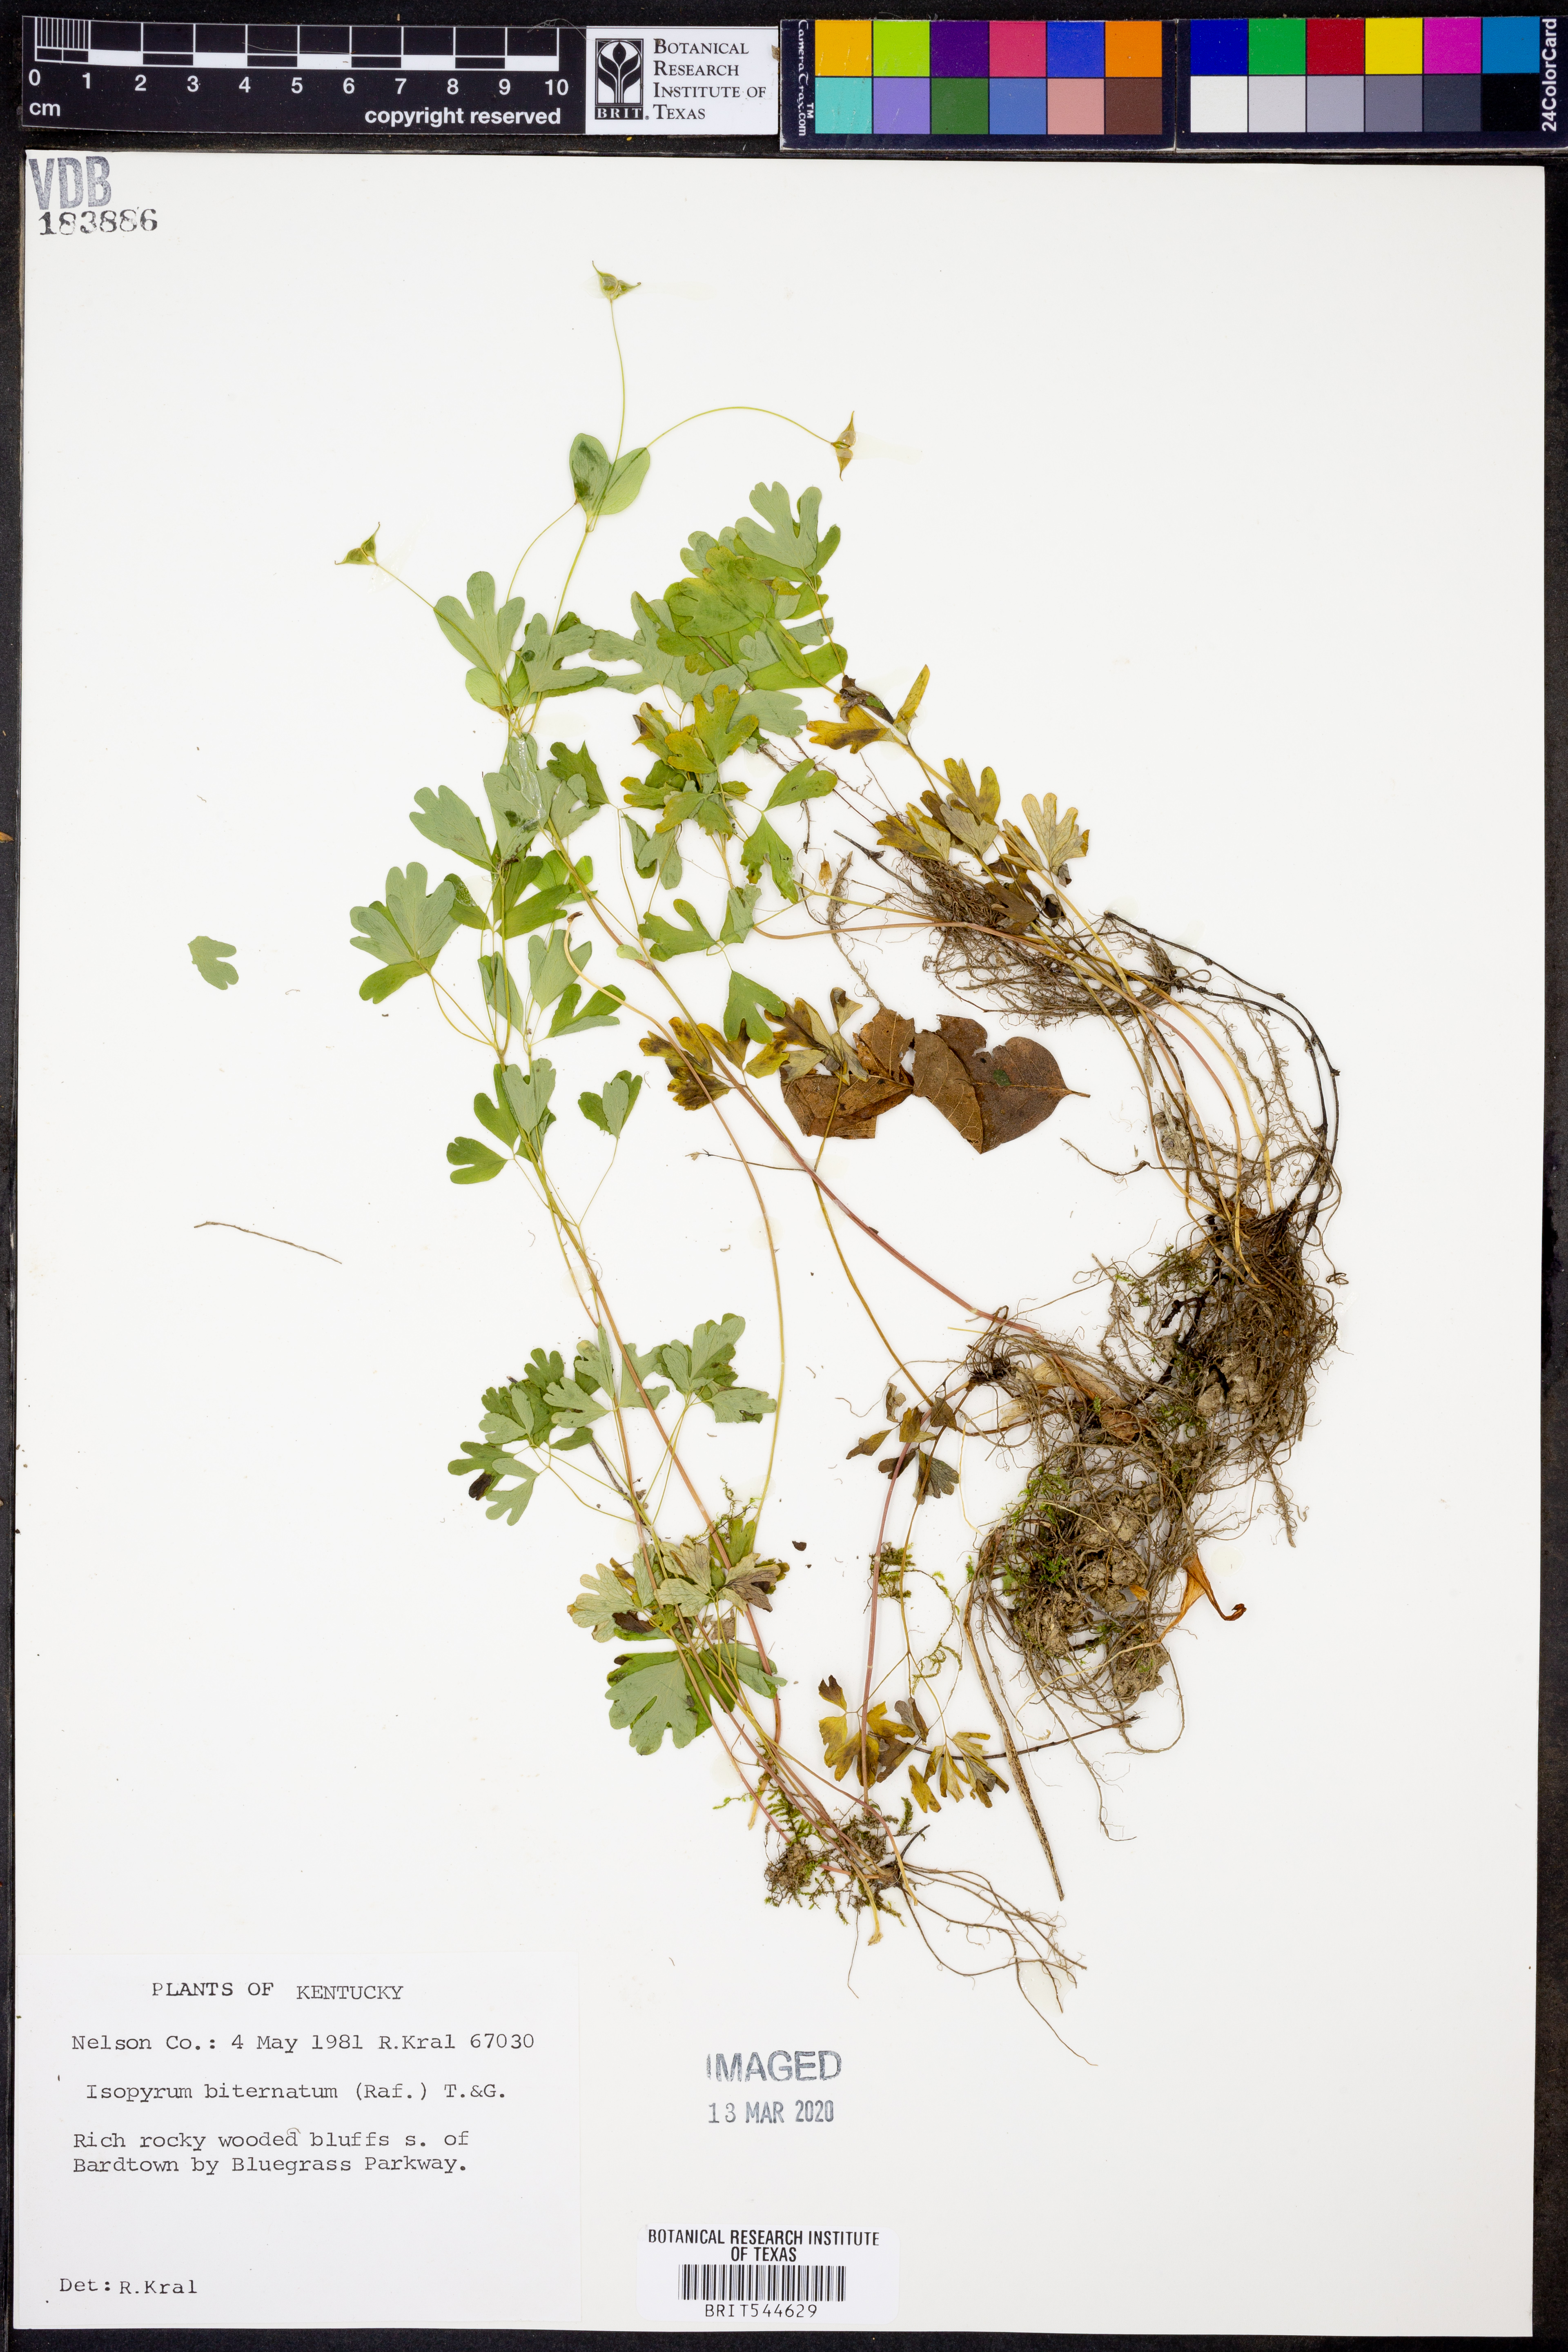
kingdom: Plantae
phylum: Tracheophyta
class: Magnoliopsida
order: Ranunculales
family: Ranunculaceae
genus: Enemion
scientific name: Enemion biternatum
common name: Eastern false rue-anemone
